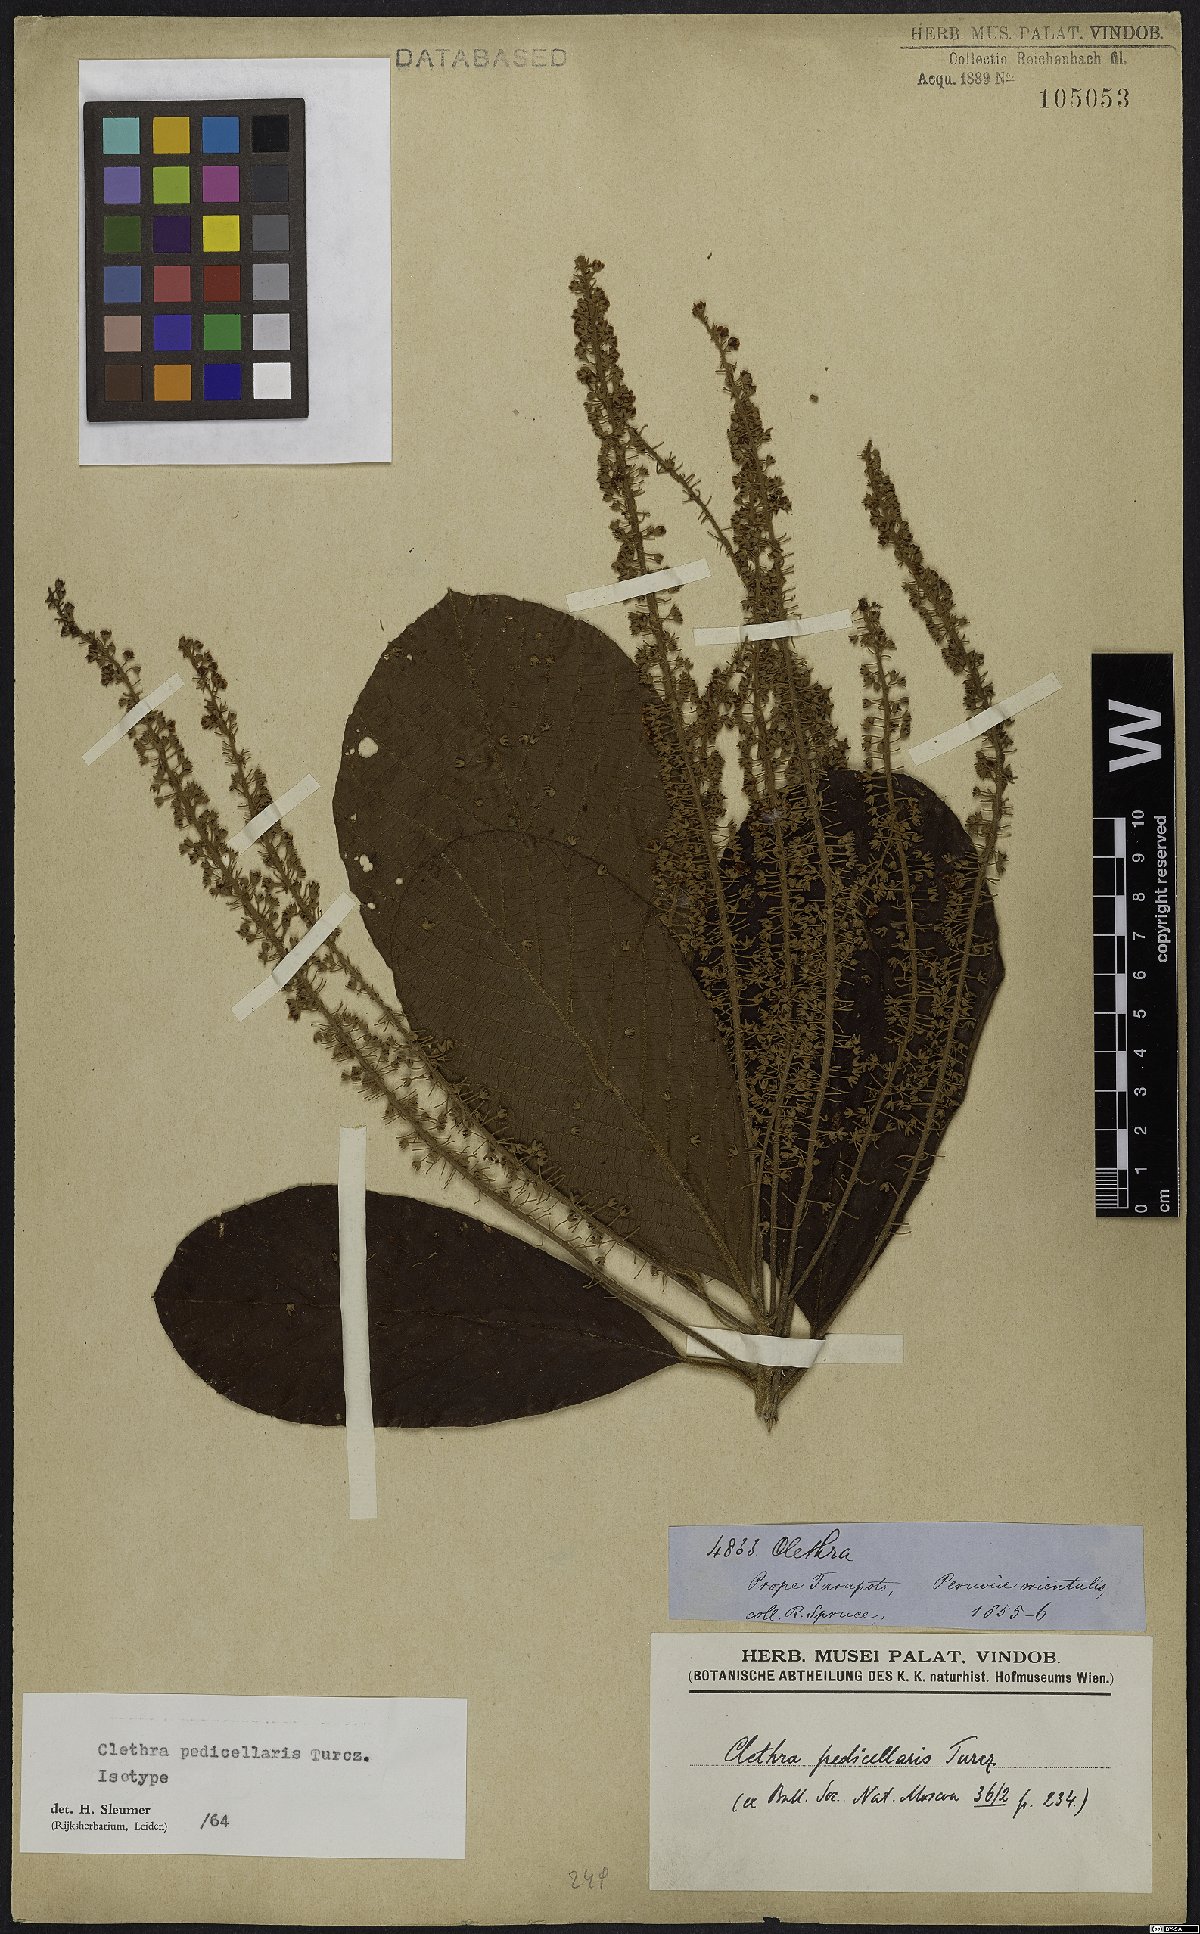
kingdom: Plantae
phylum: Tracheophyta
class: Magnoliopsida
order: Ericales
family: Clethraceae
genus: Clethra
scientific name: Clethra pedicellaris
